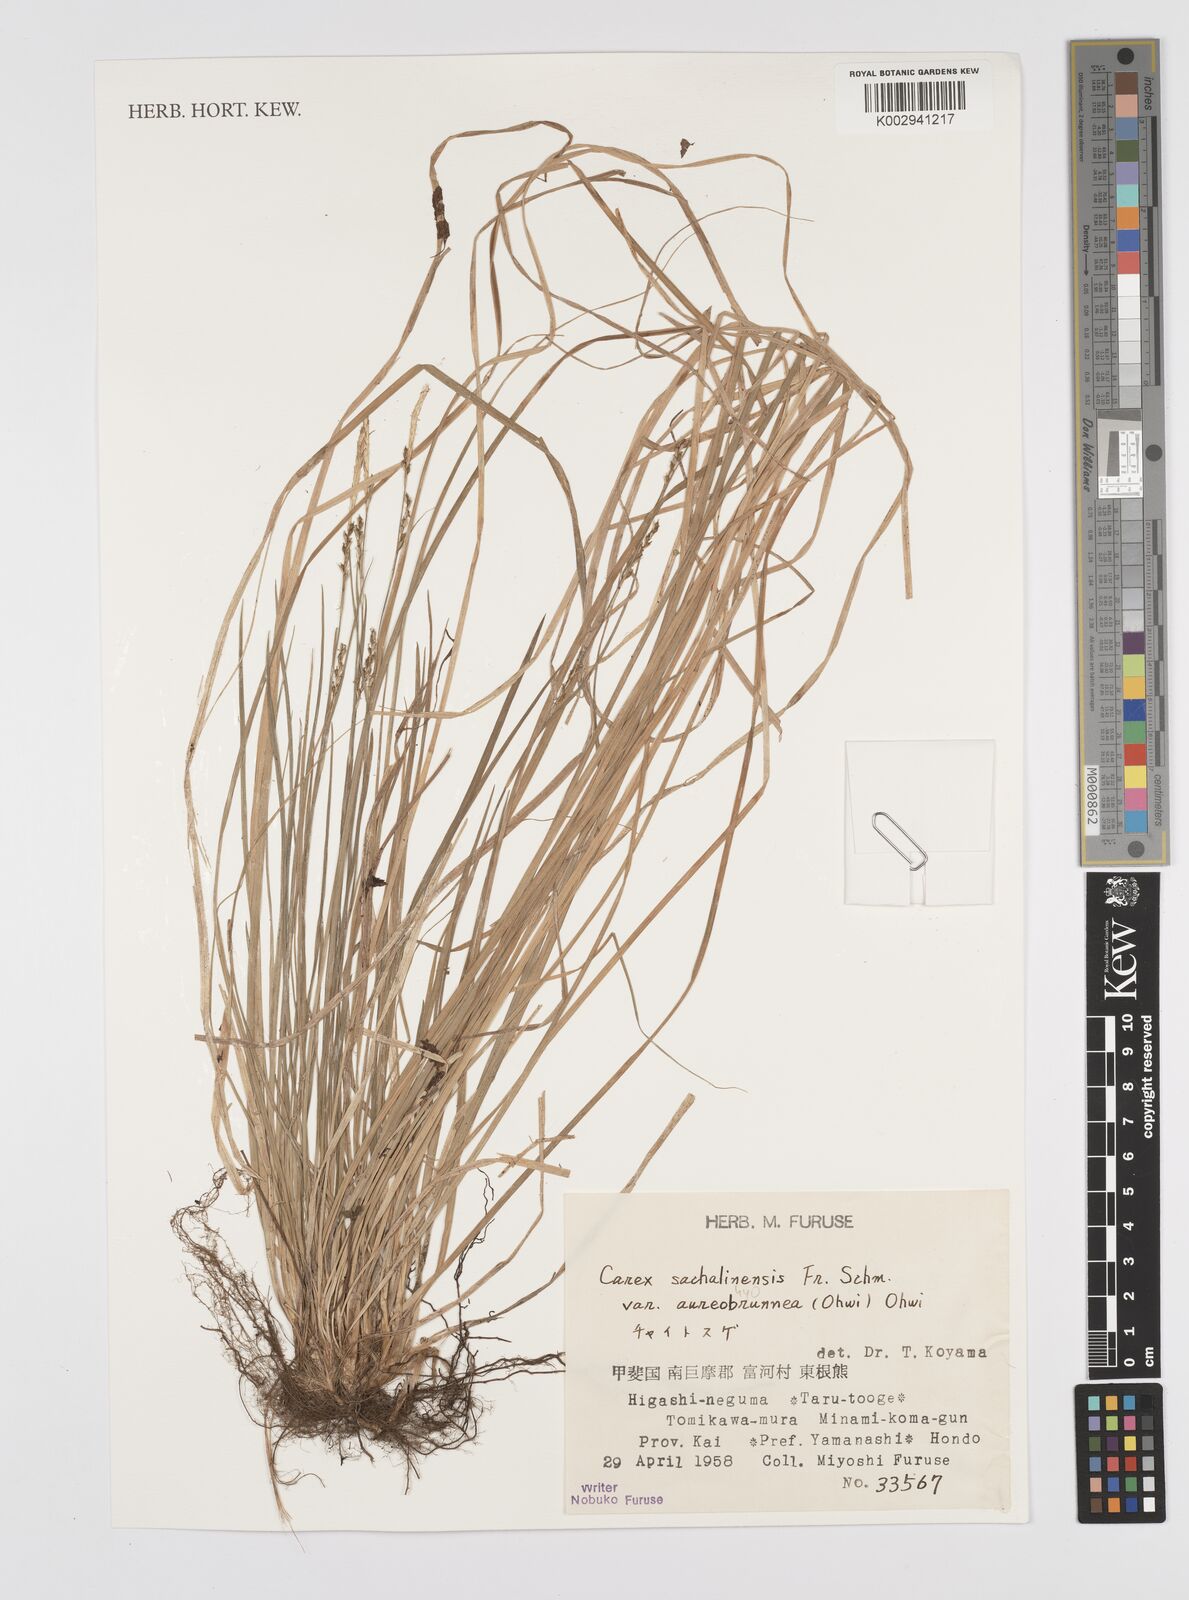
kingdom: Plantae
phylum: Tracheophyta
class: Liliopsida
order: Poales
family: Cyperaceae
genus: Carex
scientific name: Carex pisiformis
